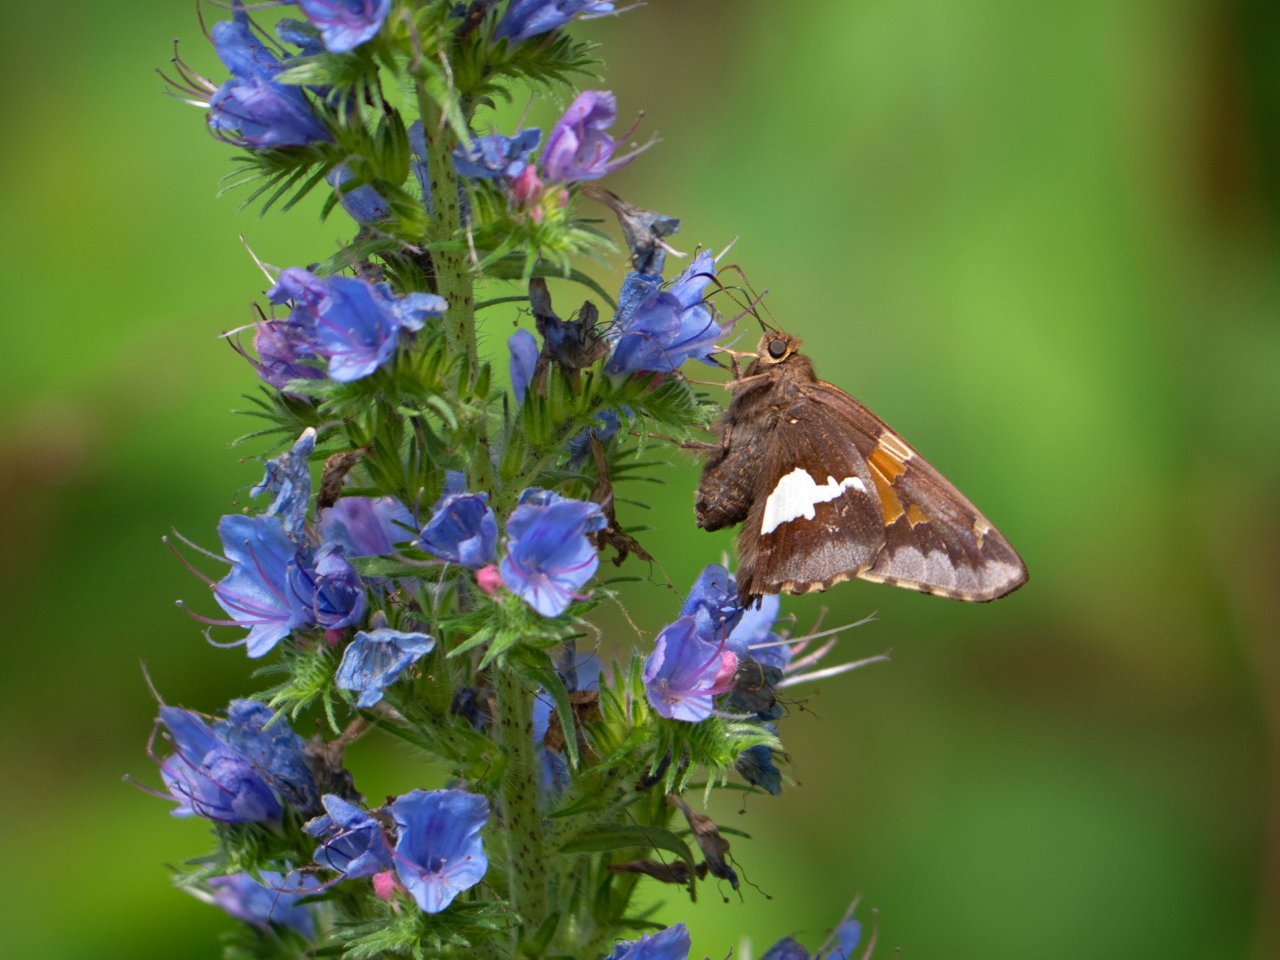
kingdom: Animalia
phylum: Arthropoda
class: Insecta
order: Lepidoptera
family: Hesperiidae
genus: Epargyreus
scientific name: Epargyreus clarus
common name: Silver-spotted Skipper
